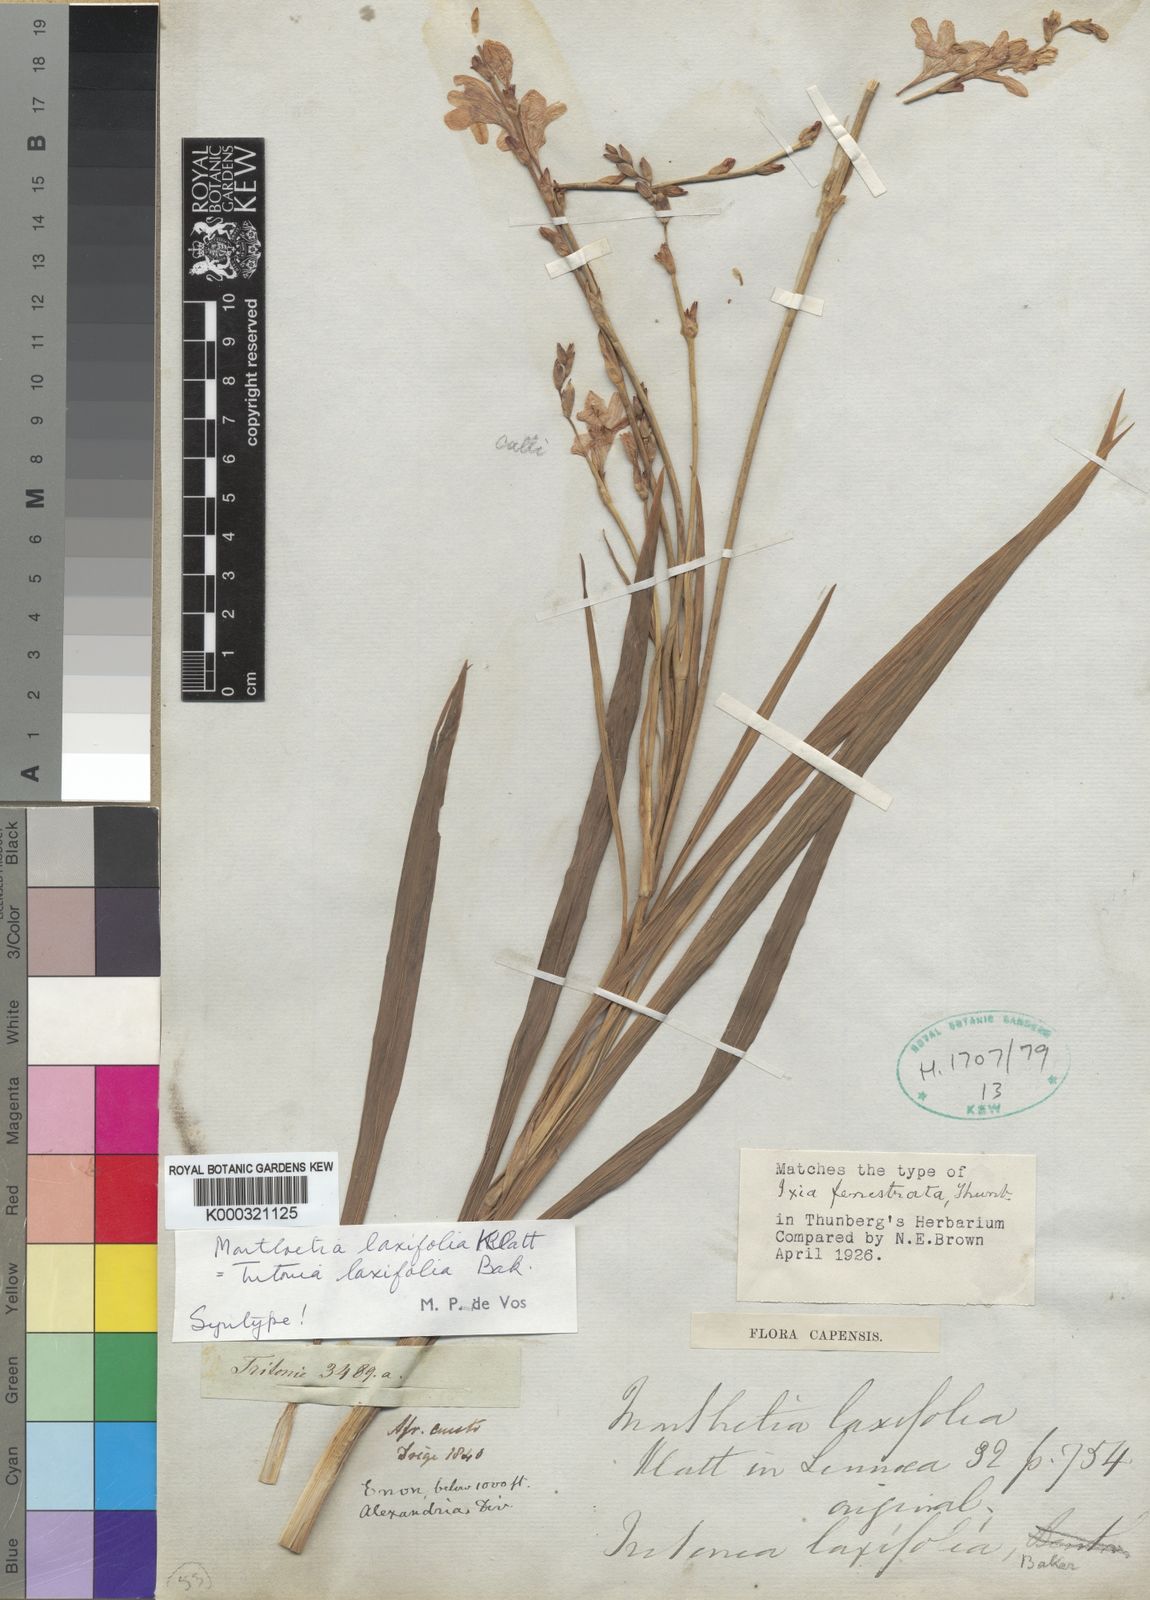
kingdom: Plantae
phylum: Tracheophyta
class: Liliopsida
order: Asparagales
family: Iridaceae
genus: Tritonia
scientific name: Tritonia laxifolia
